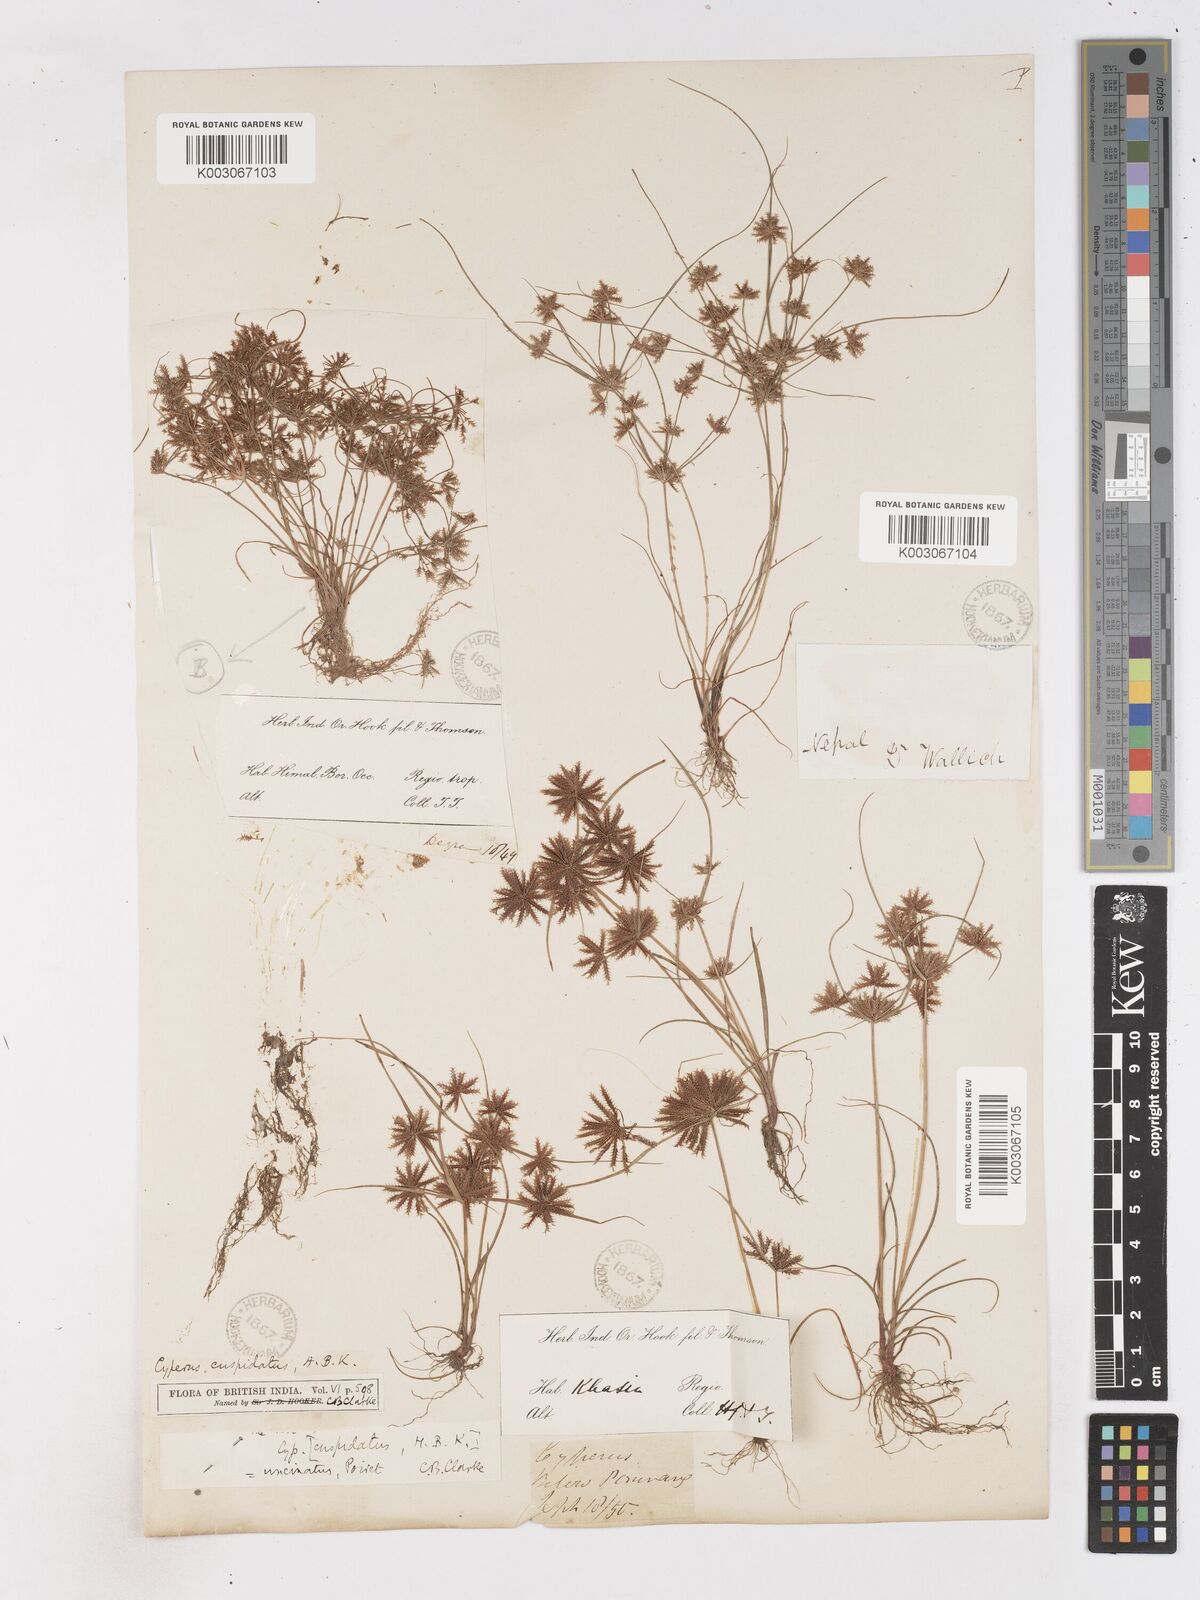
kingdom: Plantae
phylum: Tracheophyta
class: Liliopsida
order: Poales
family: Cyperaceae
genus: Cyperus
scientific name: Cyperus cuspidatus
